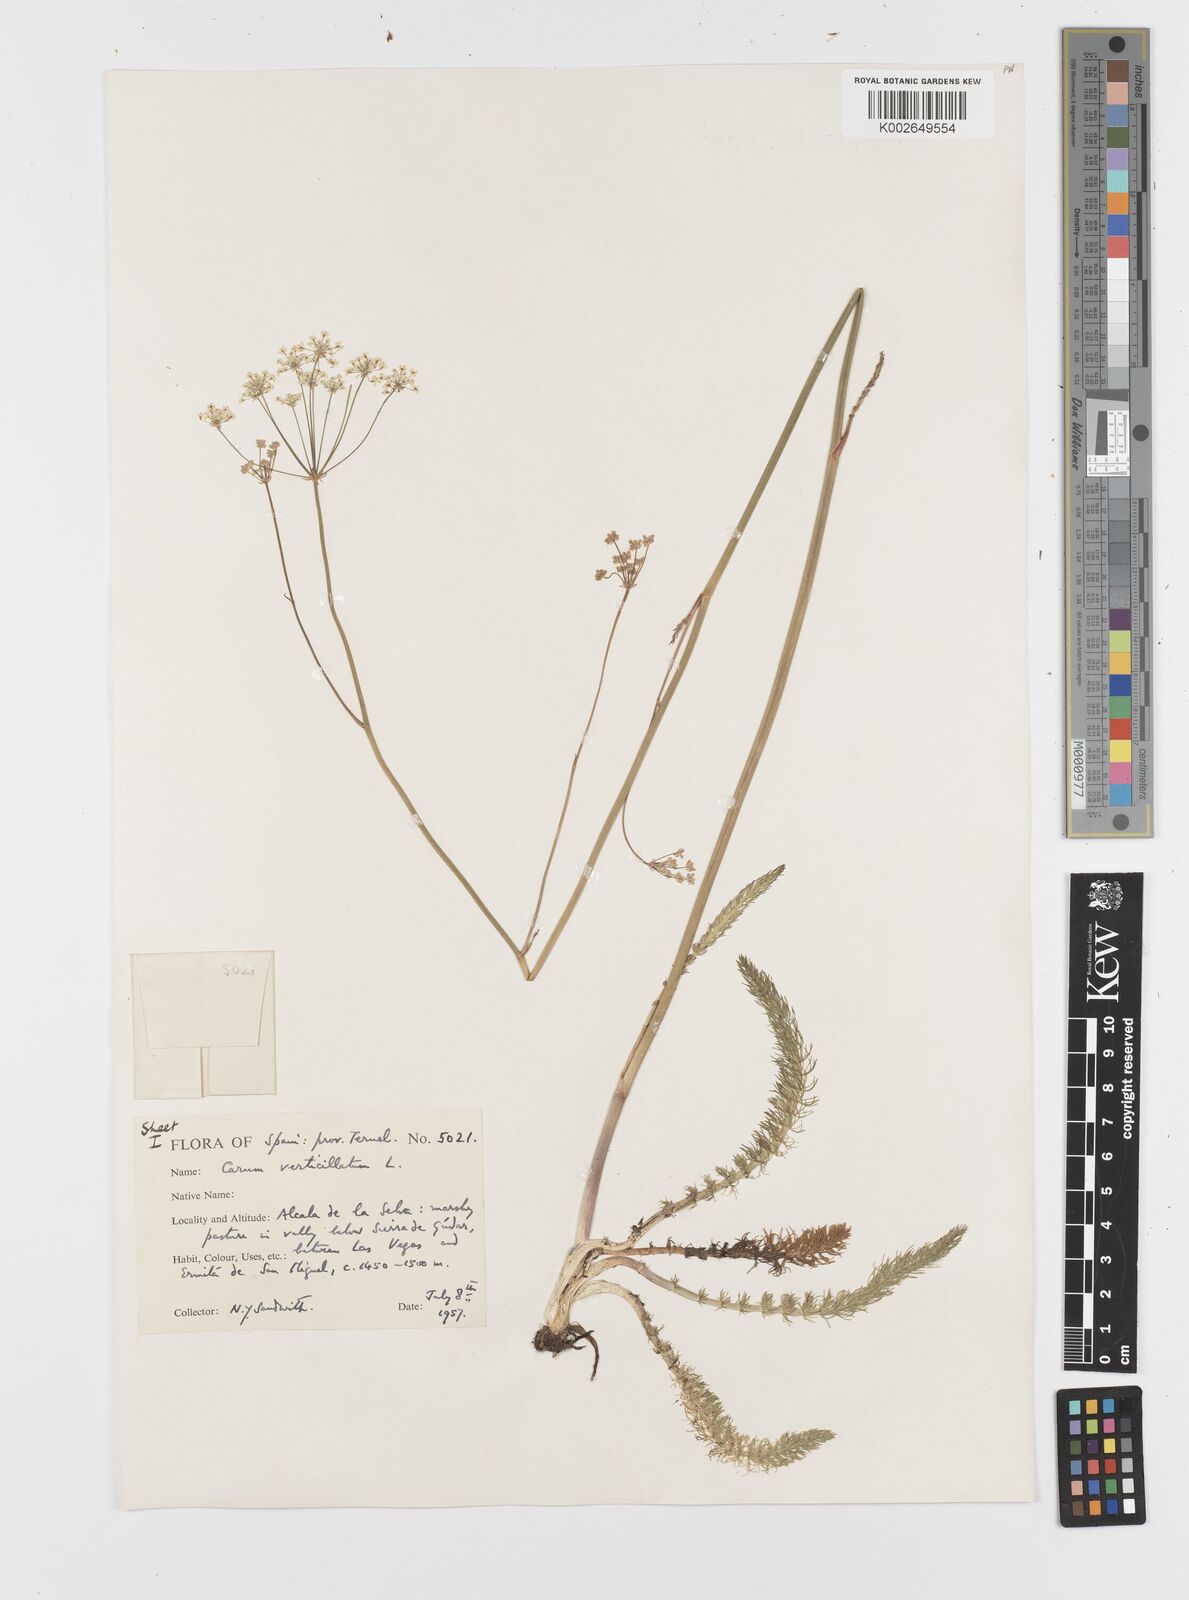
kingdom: Plantae
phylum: Tracheophyta
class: Magnoliopsida
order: Apiales
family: Apiaceae
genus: Trocdaris
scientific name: Trocdaris verticillatum
